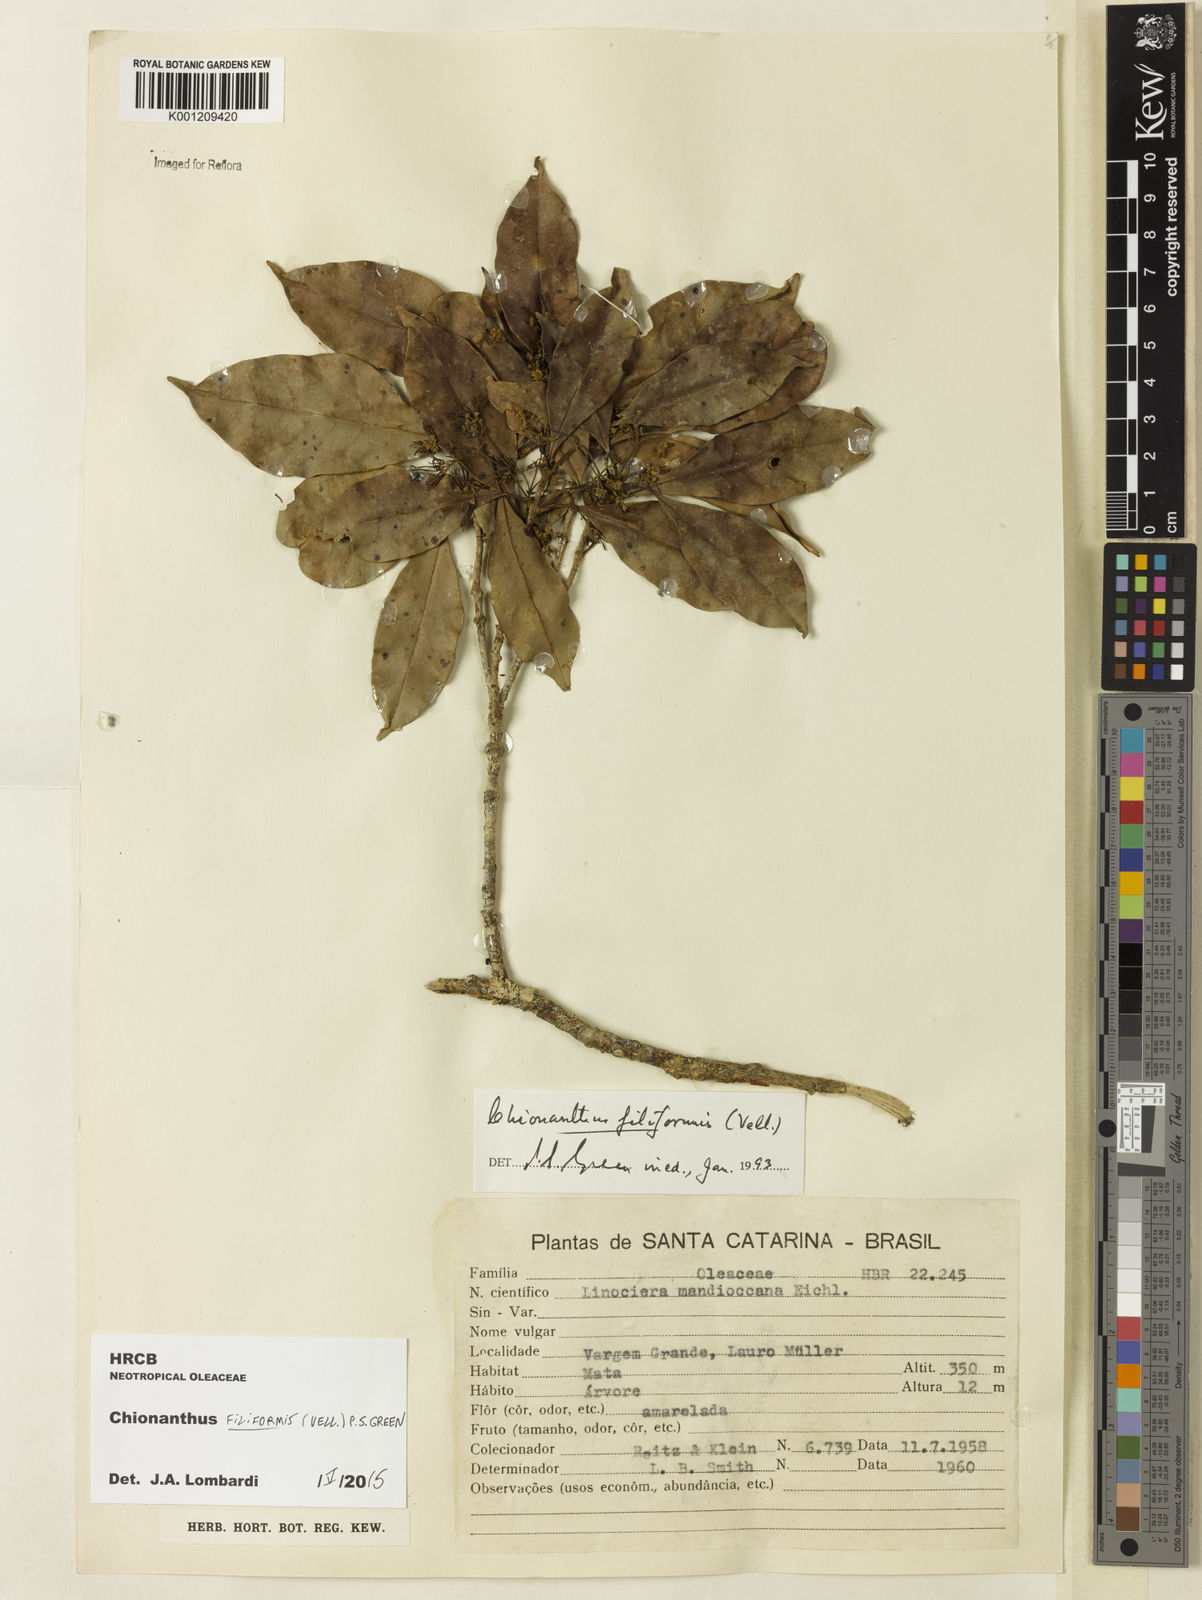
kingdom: Plantae
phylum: Tracheophyta
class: Magnoliopsida
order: Lamiales
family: Oleaceae
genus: Chionanthus
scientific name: Chionanthus filiformis
